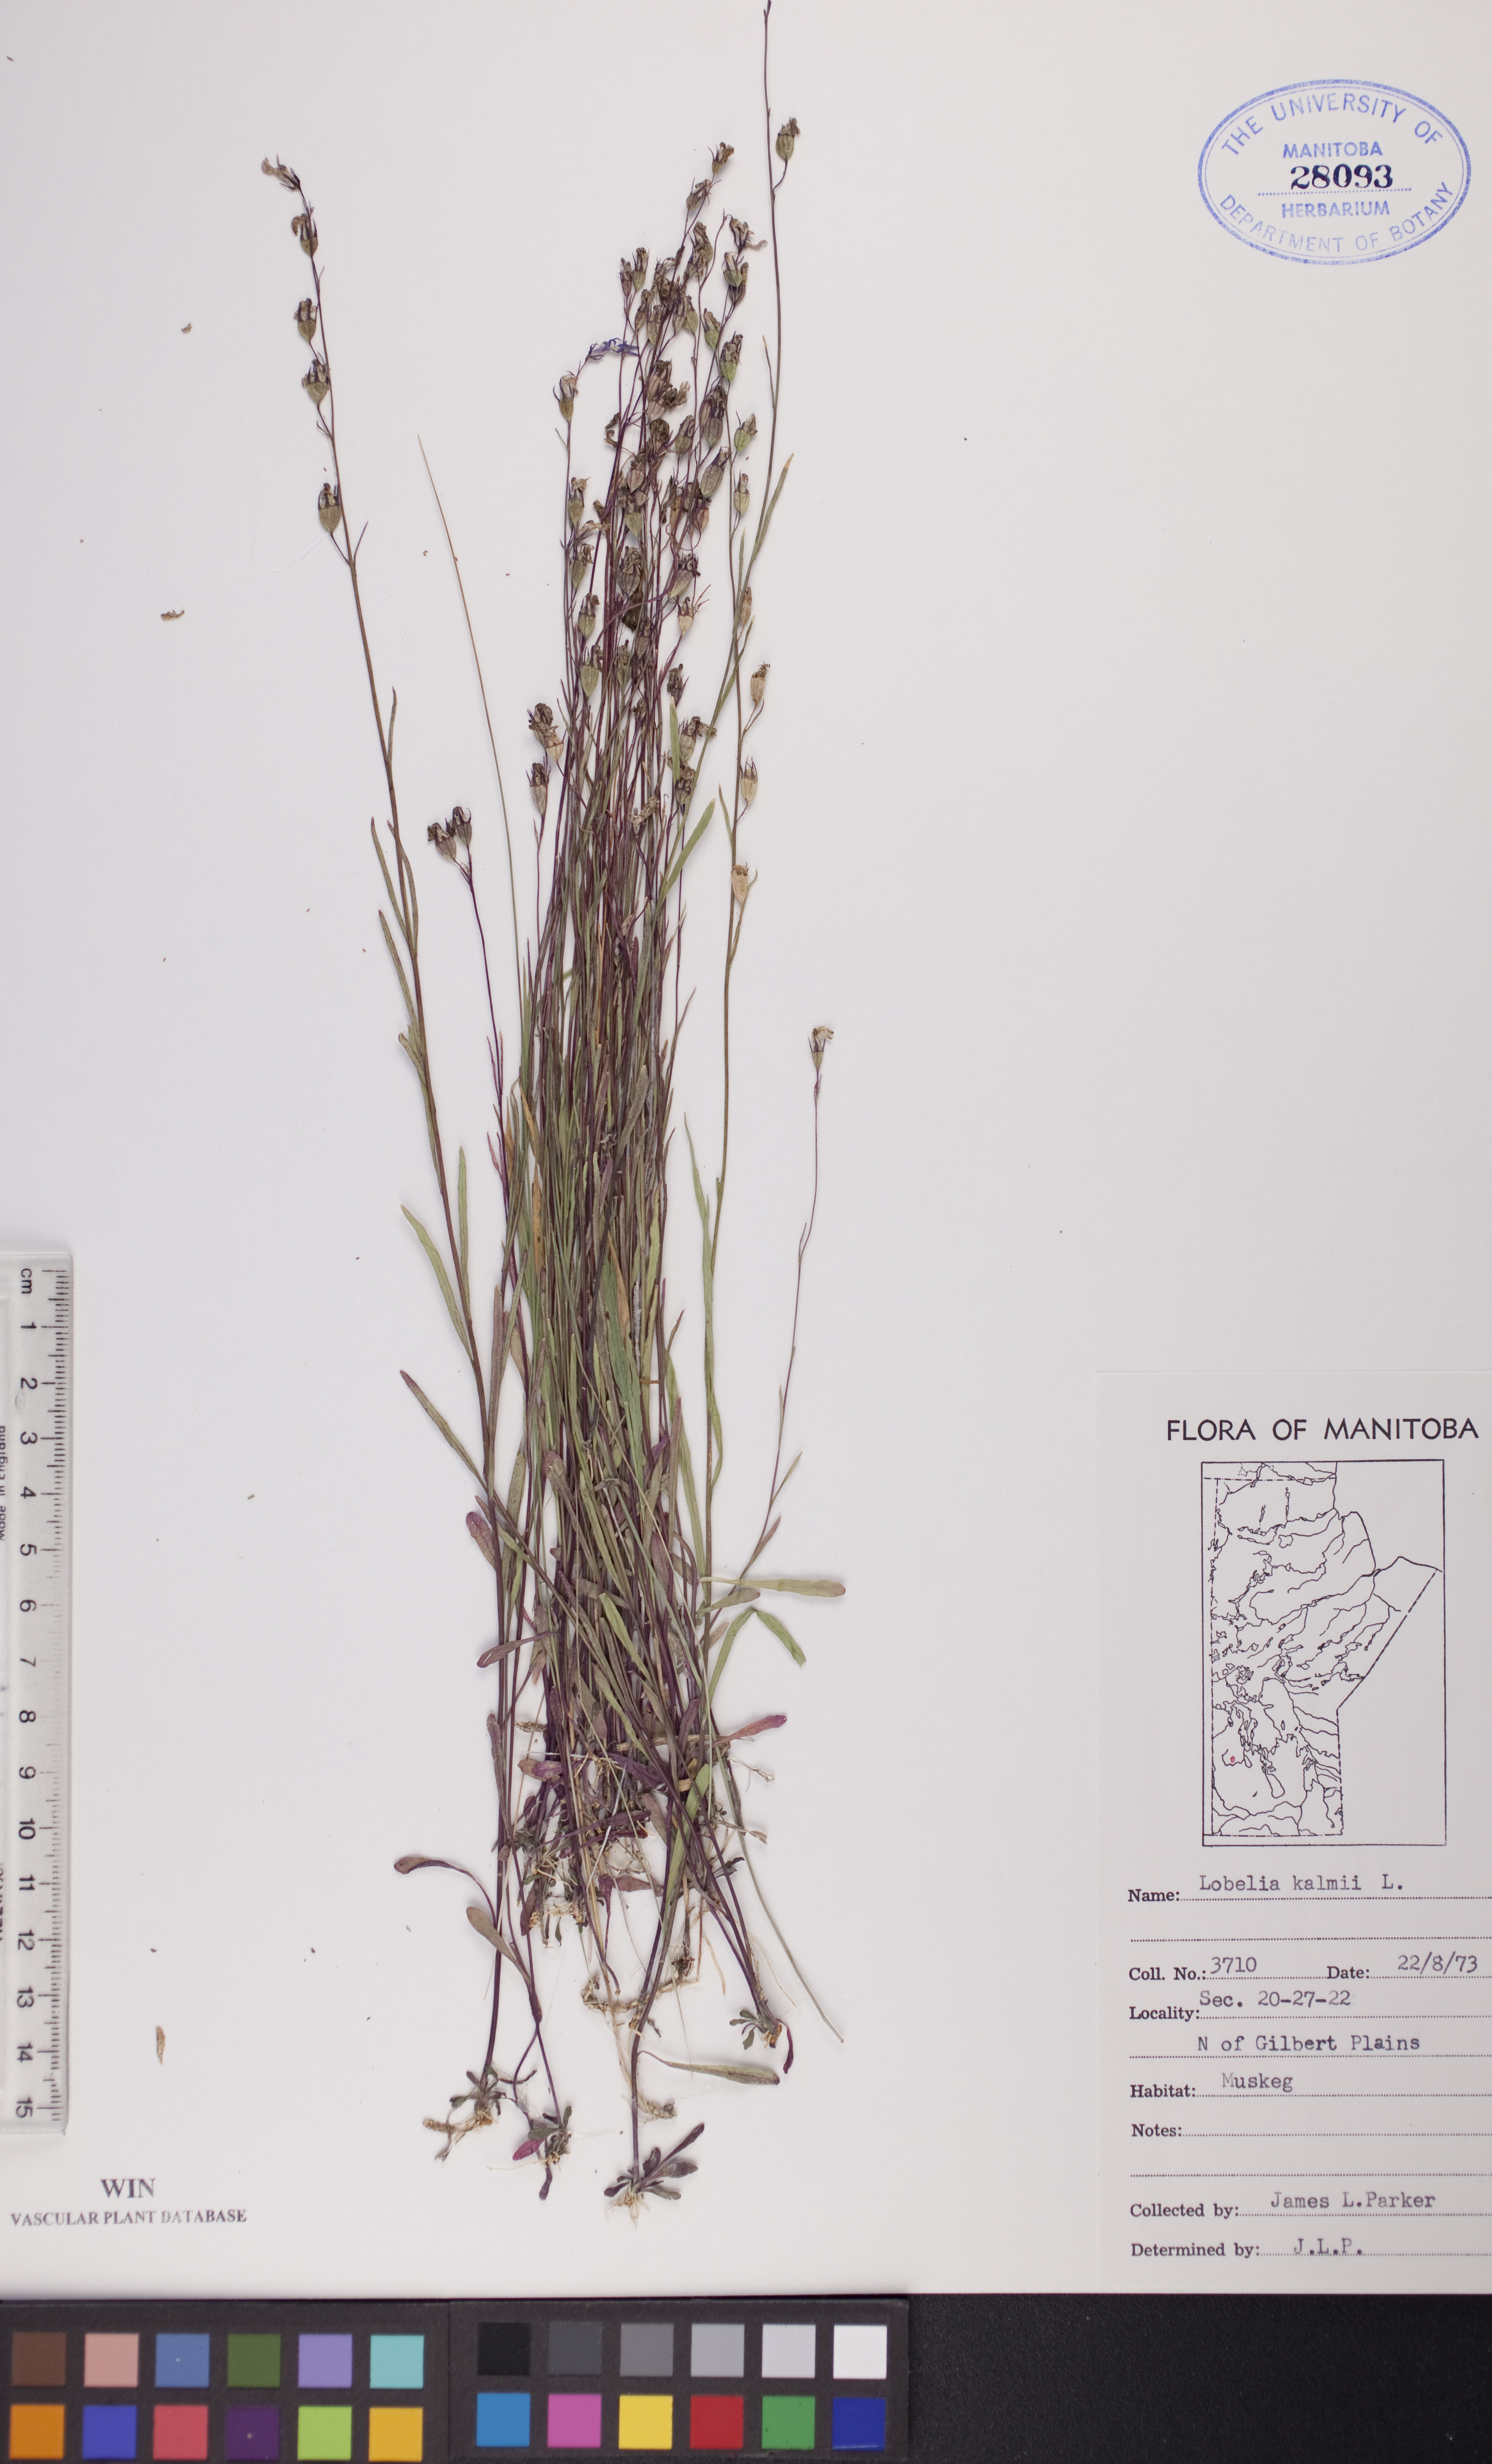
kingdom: Plantae
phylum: Tracheophyta
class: Magnoliopsida
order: Asterales
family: Campanulaceae
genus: Lobelia
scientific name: Lobelia kalmii
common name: Kalm's lobelia
